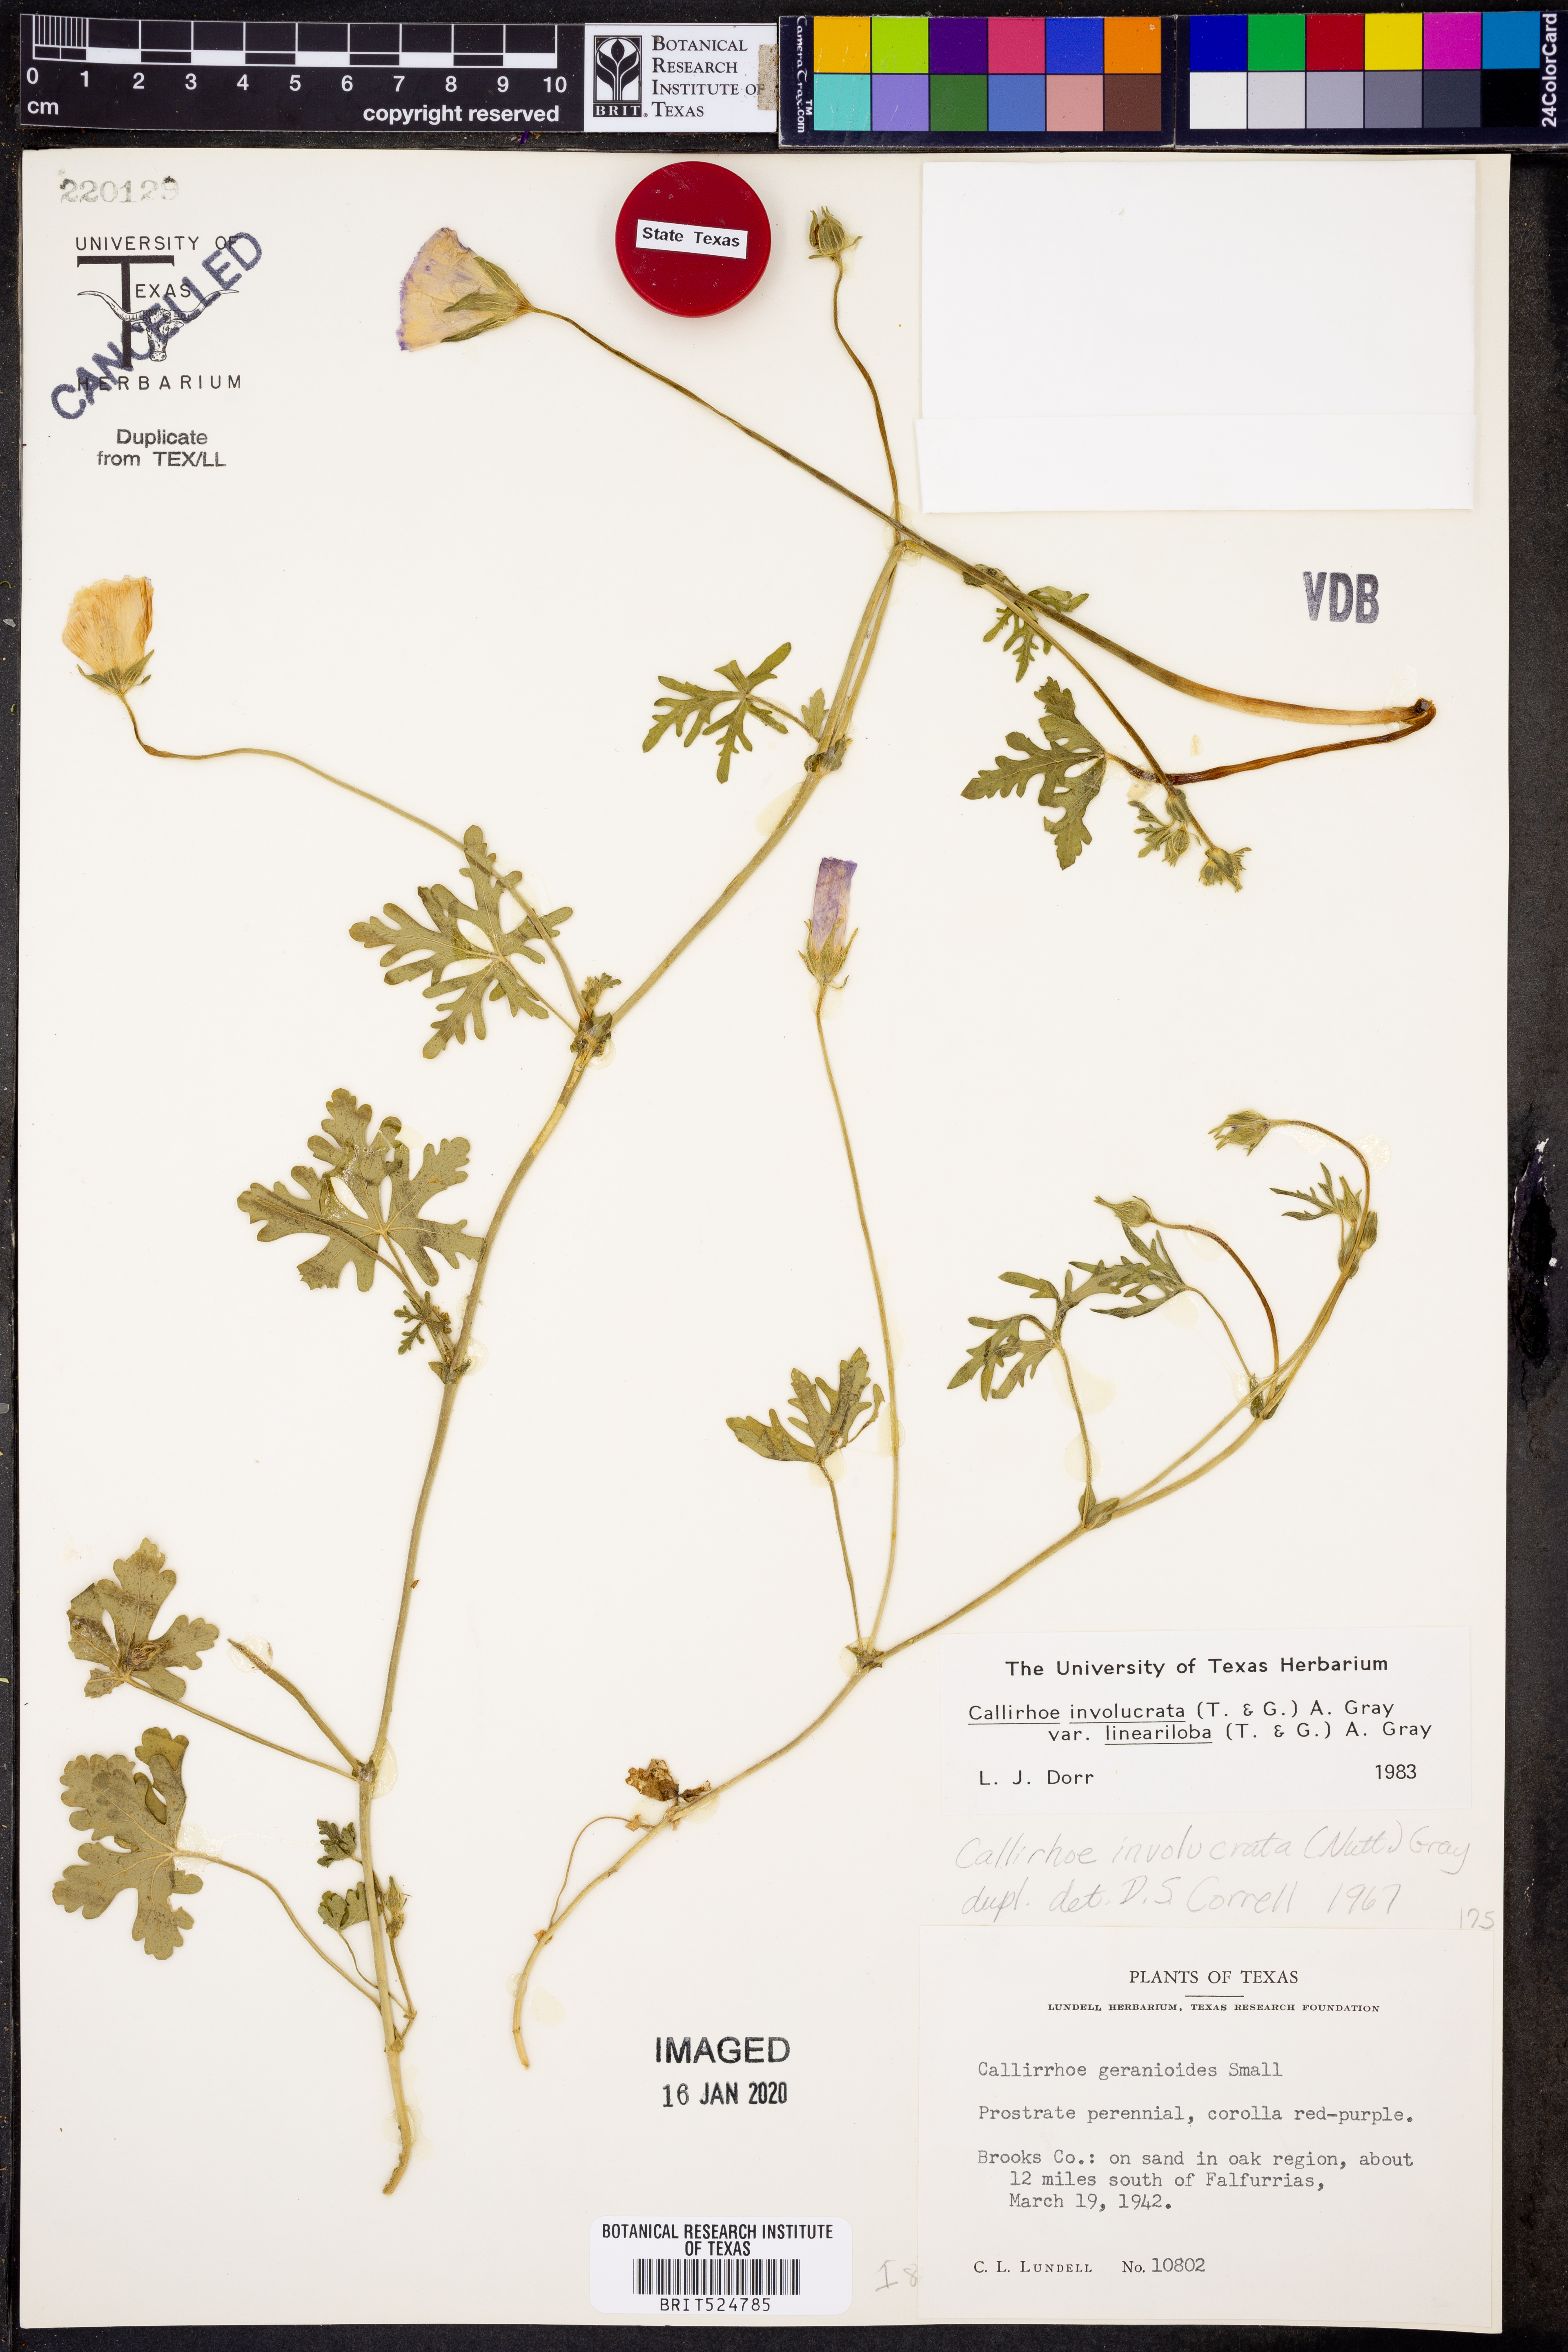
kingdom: Plantae
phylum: Tracheophyta
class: Magnoliopsida
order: Malvales
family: Malvaceae
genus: Callirhoe
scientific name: Callirhoe involucrata
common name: Purple poppy-mallow
